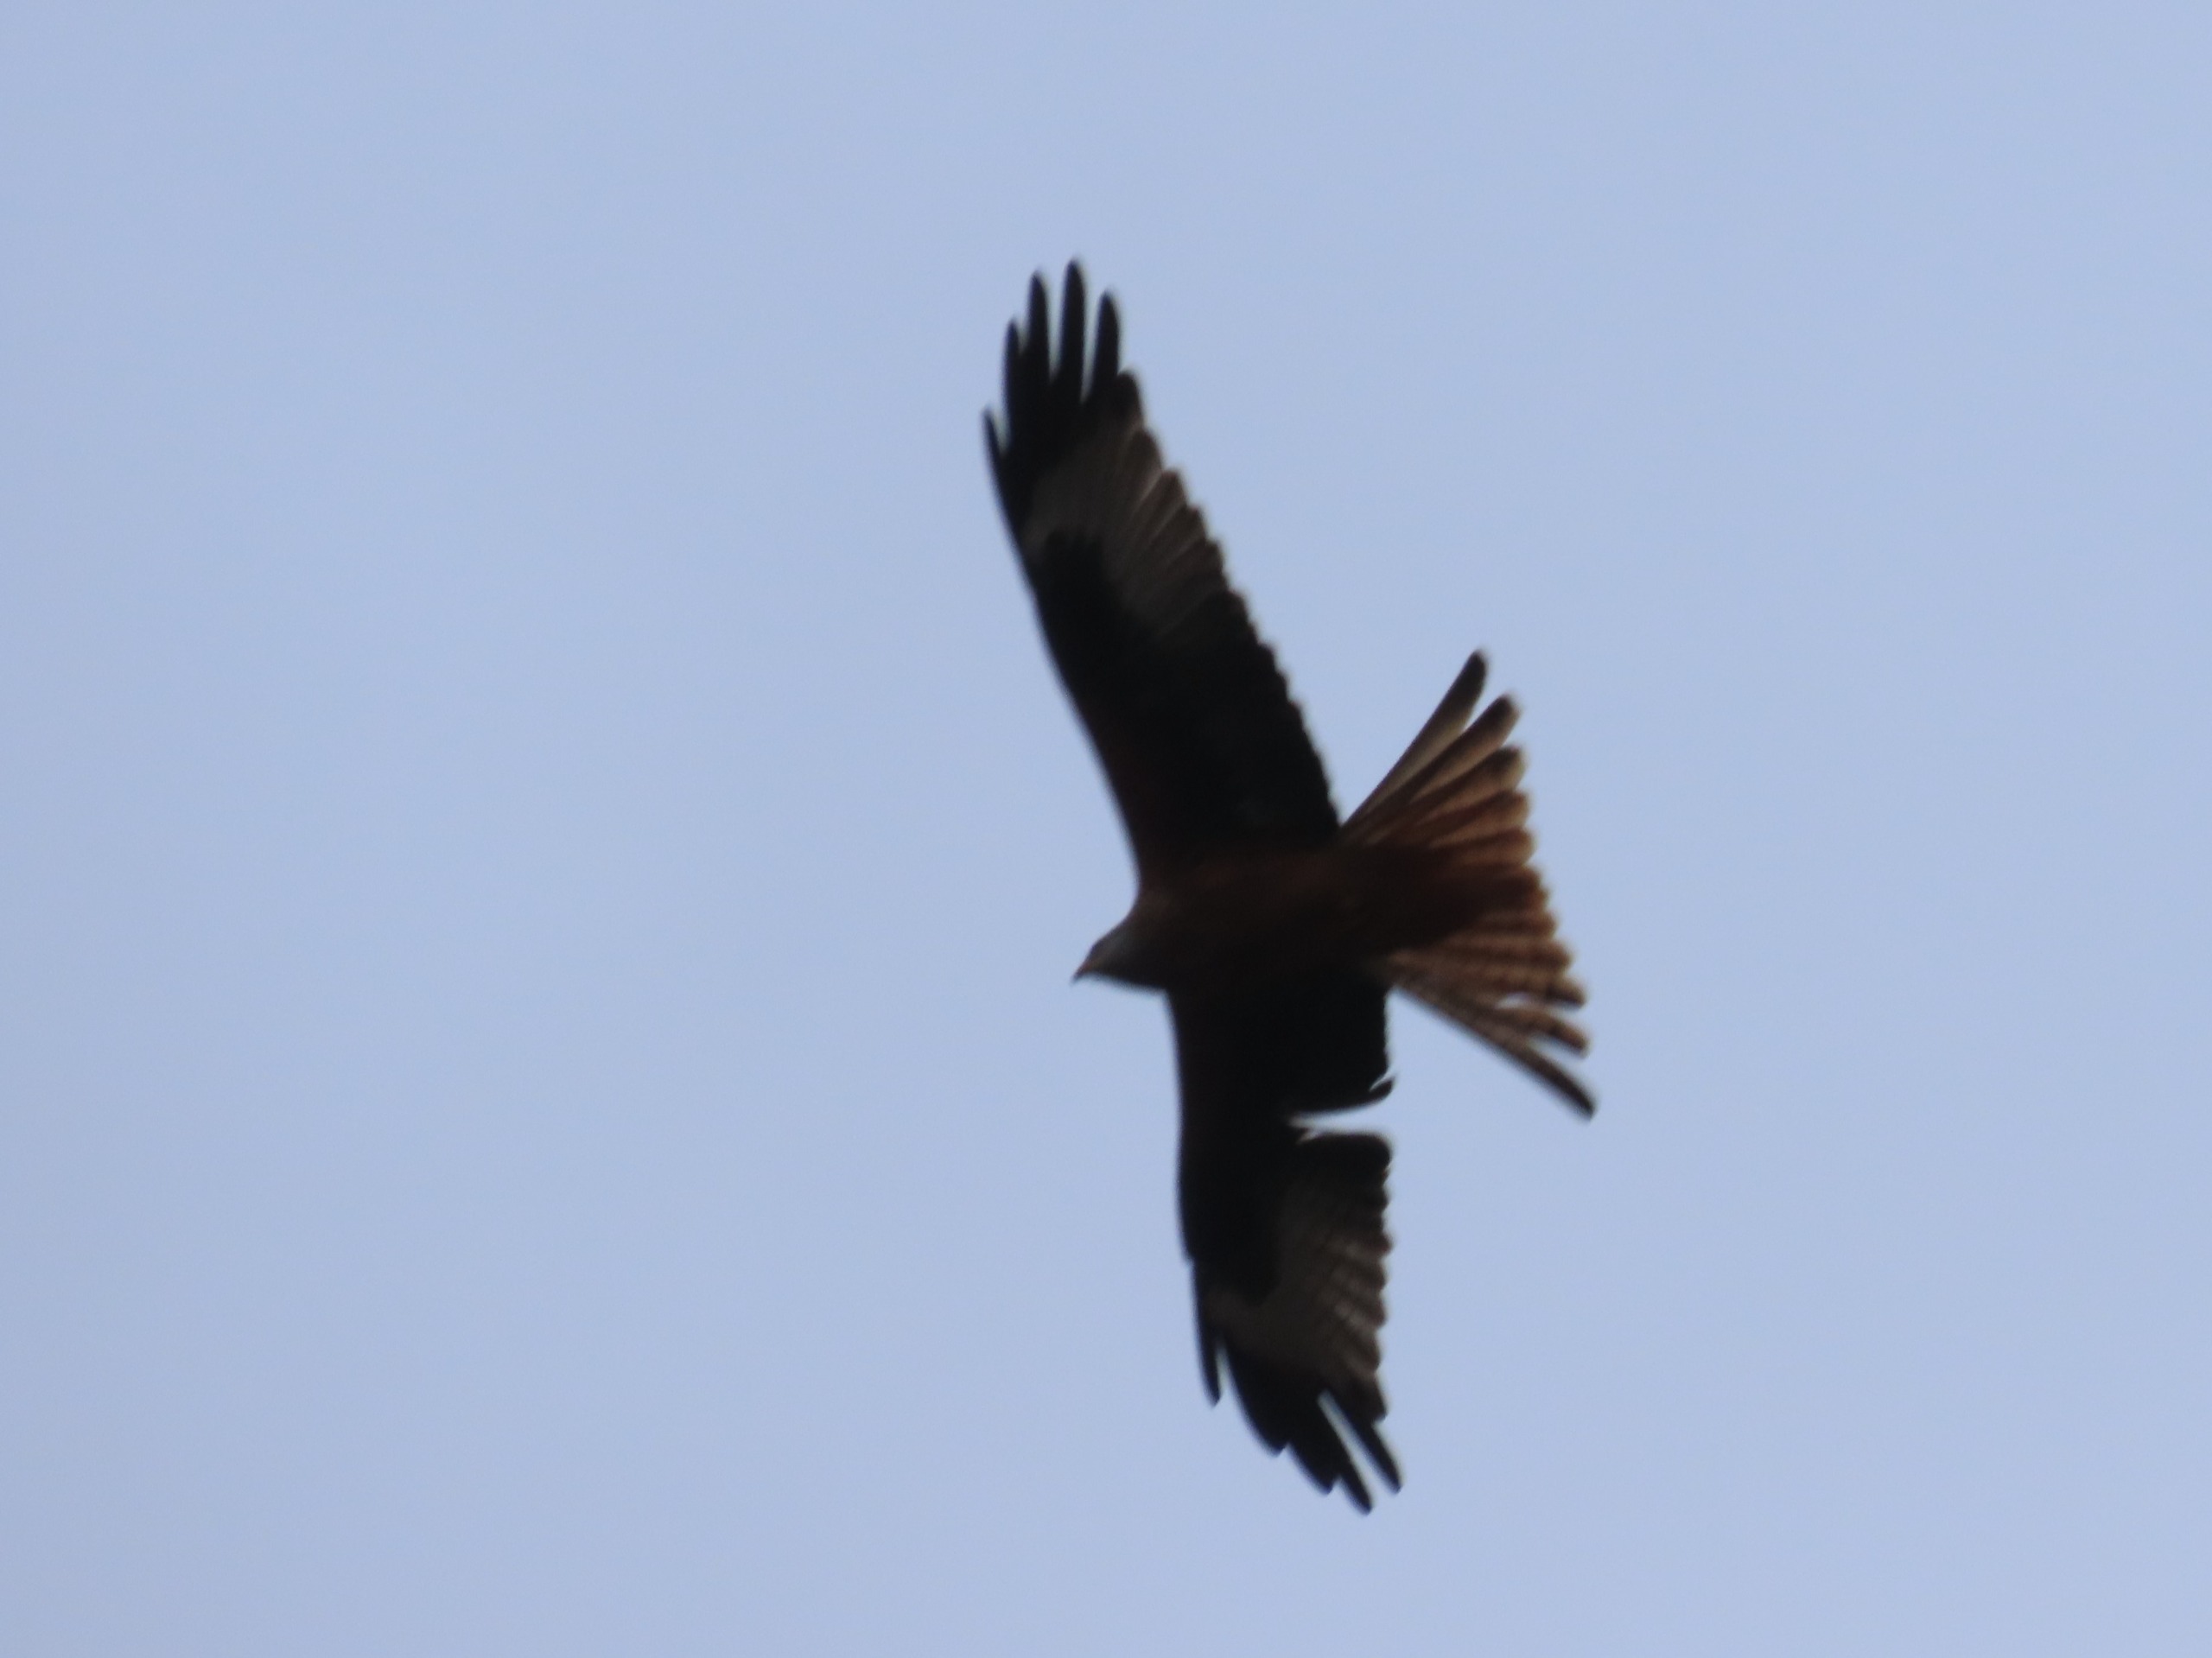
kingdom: Animalia
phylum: Chordata
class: Aves
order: Accipitriformes
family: Accipitridae
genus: Milvus
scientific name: Milvus milvus
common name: Rød glente
